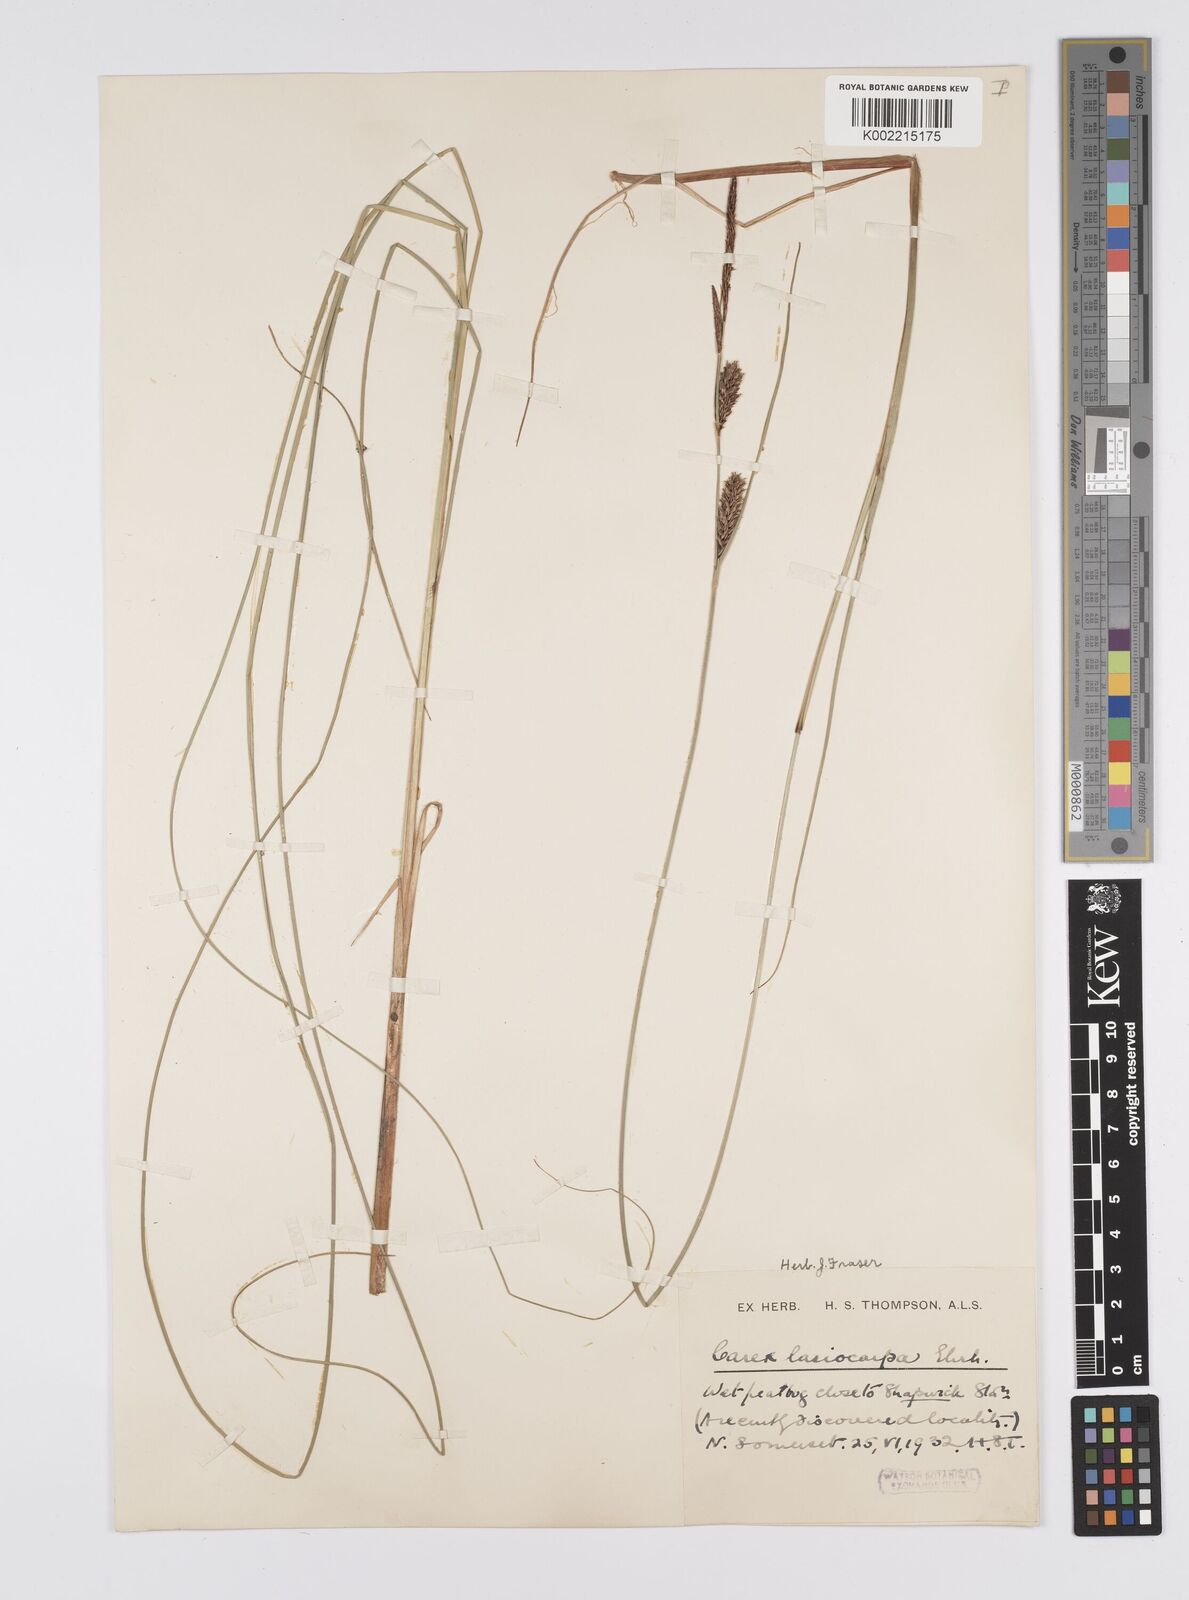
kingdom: Plantae
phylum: Tracheophyta
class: Liliopsida
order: Poales
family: Cyperaceae
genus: Carex
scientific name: Carex lasiocarpa
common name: Slender sedge
